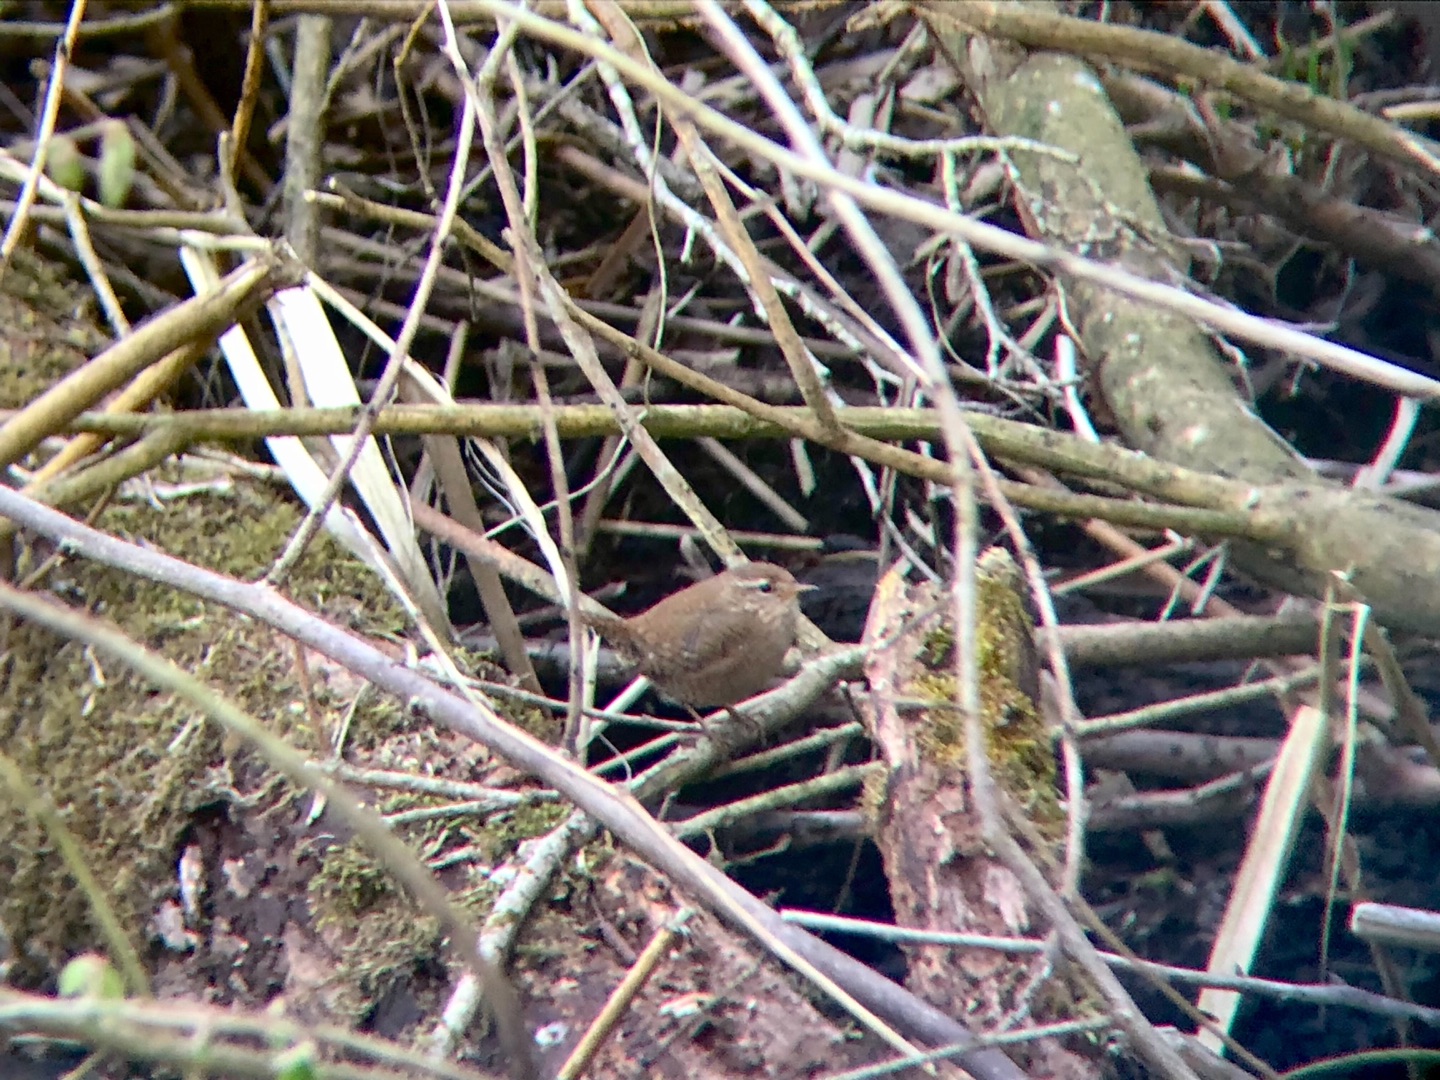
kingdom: Animalia
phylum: Chordata
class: Aves
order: Passeriformes
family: Troglodytidae
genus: Troglodytes
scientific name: Troglodytes troglodytes
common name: Gærdesmutte
